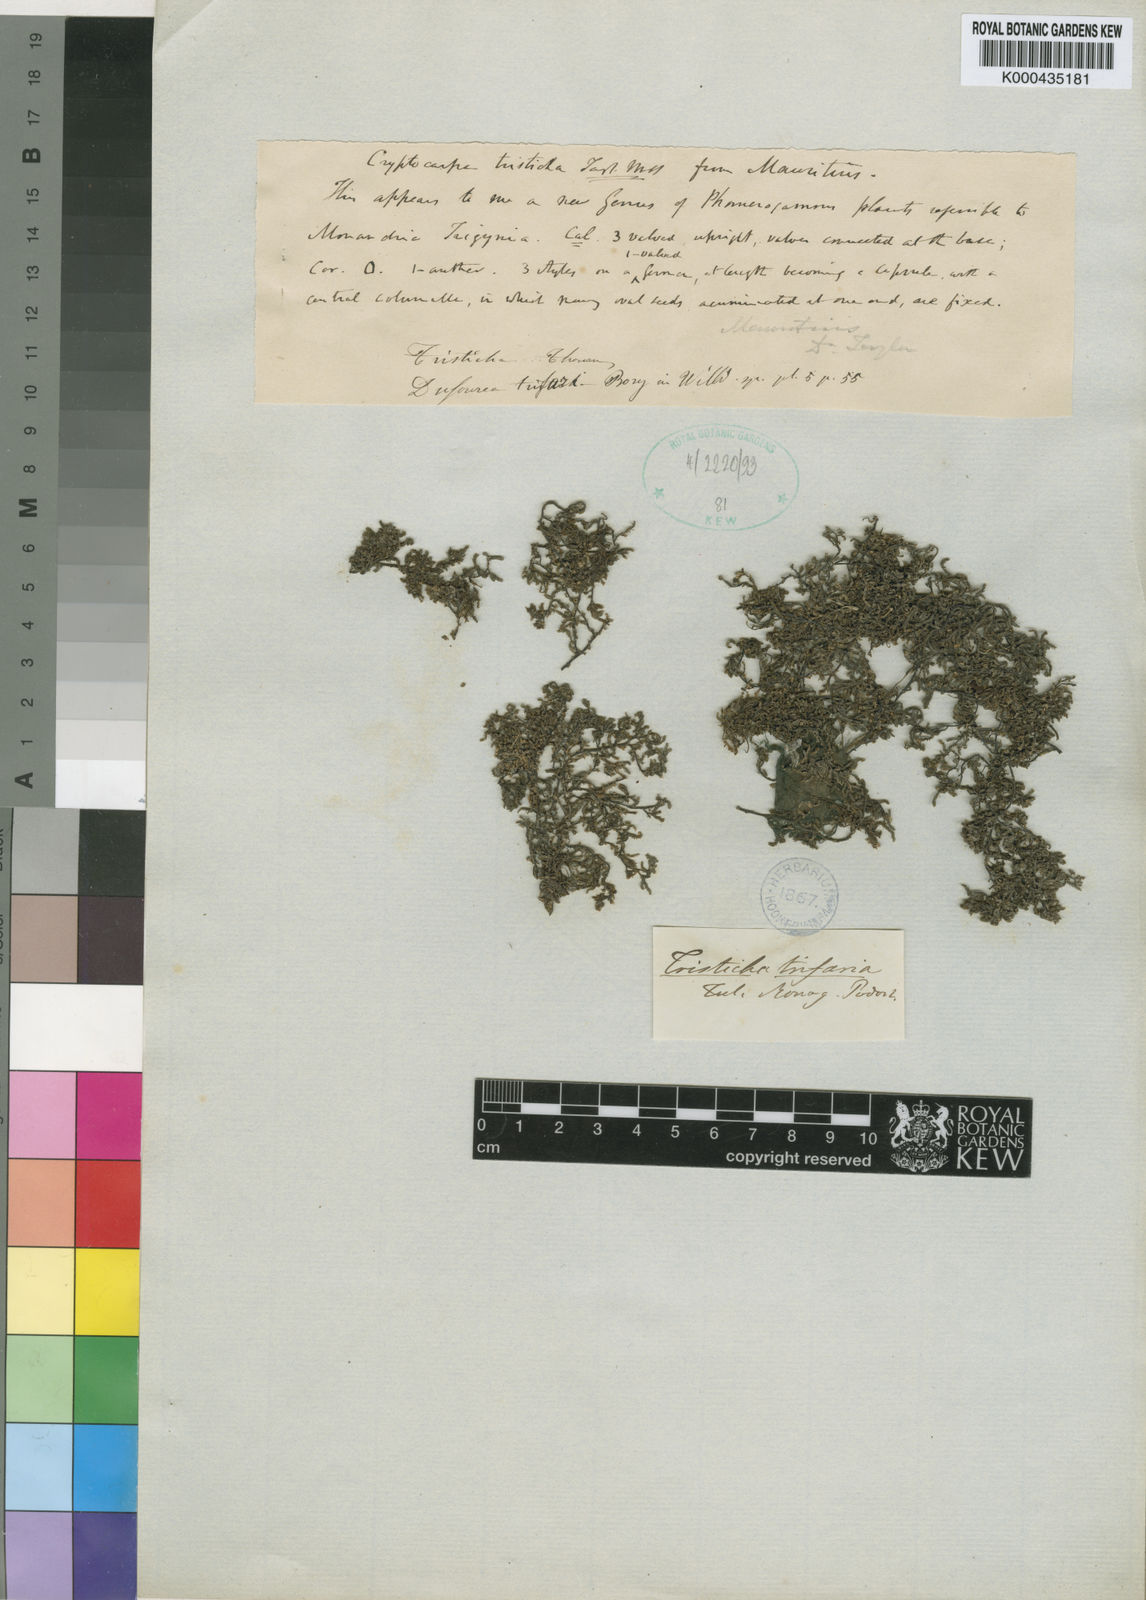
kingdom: Plantae
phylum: Tracheophyta
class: Magnoliopsida
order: Malpighiales
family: Podostemaceae
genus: Tristicha
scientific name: Tristicha trifaria
